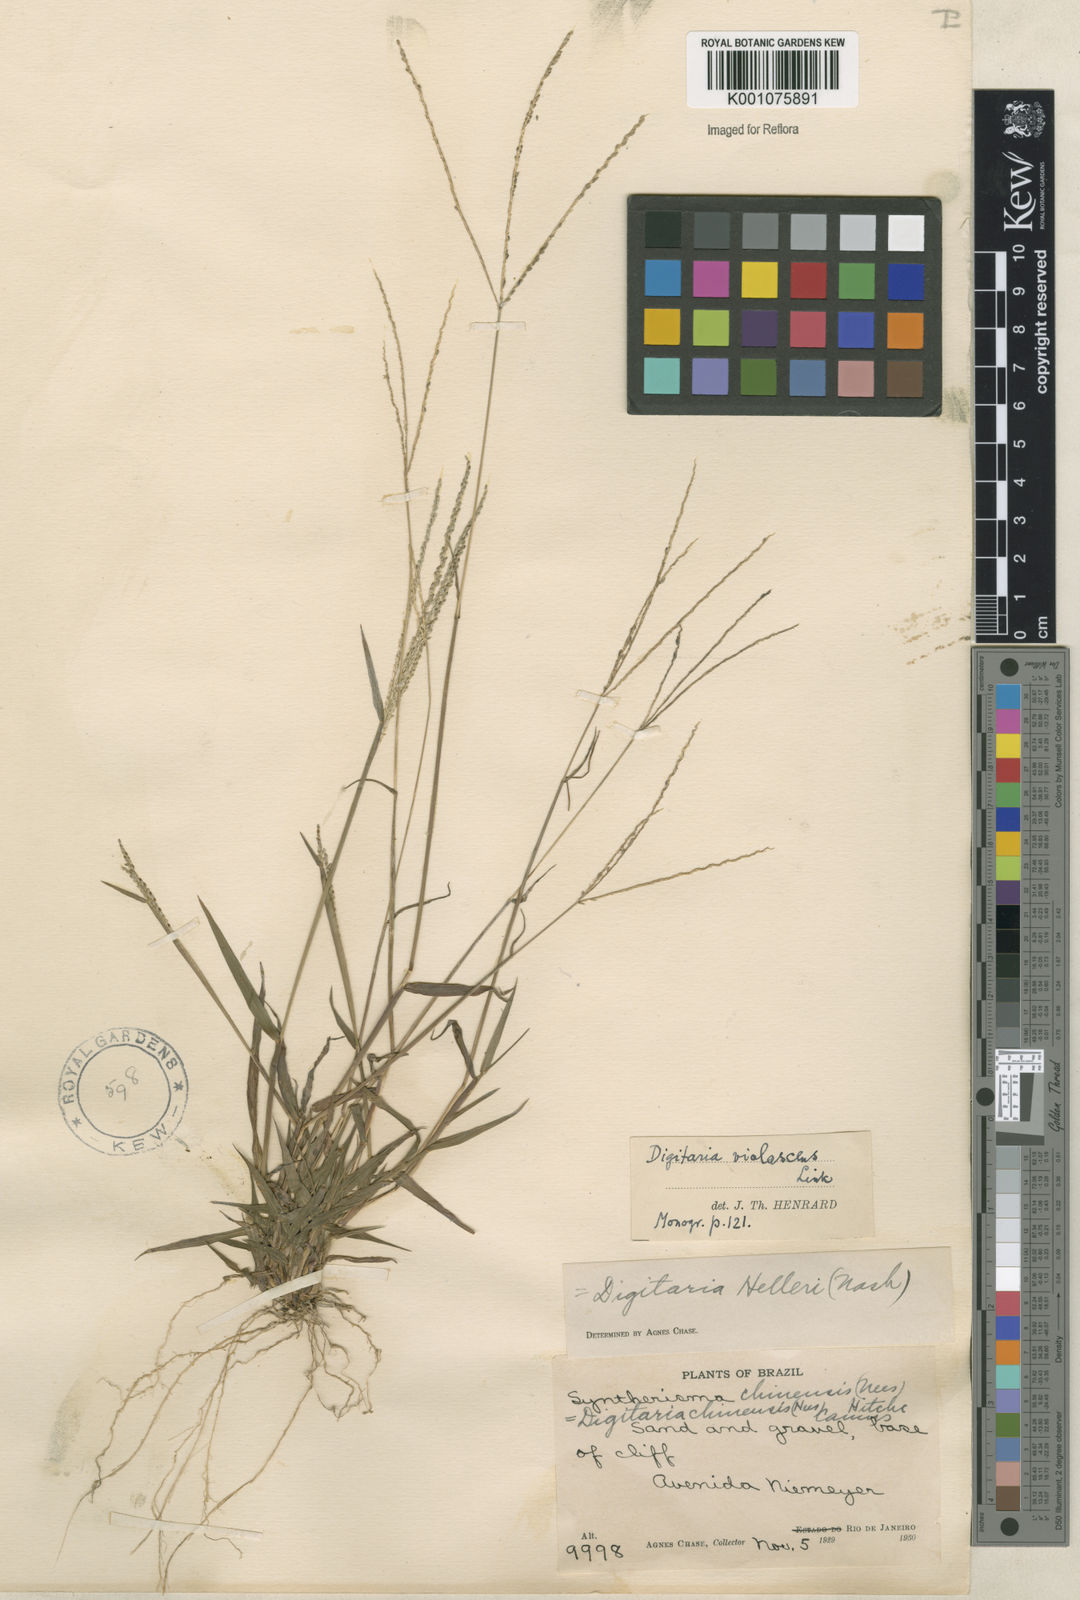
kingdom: Plantae
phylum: Tracheophyta
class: Liliopsida
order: Poales
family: Poaceae
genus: Digitaria
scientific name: Digitaria violascens
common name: Violet crabgrass
